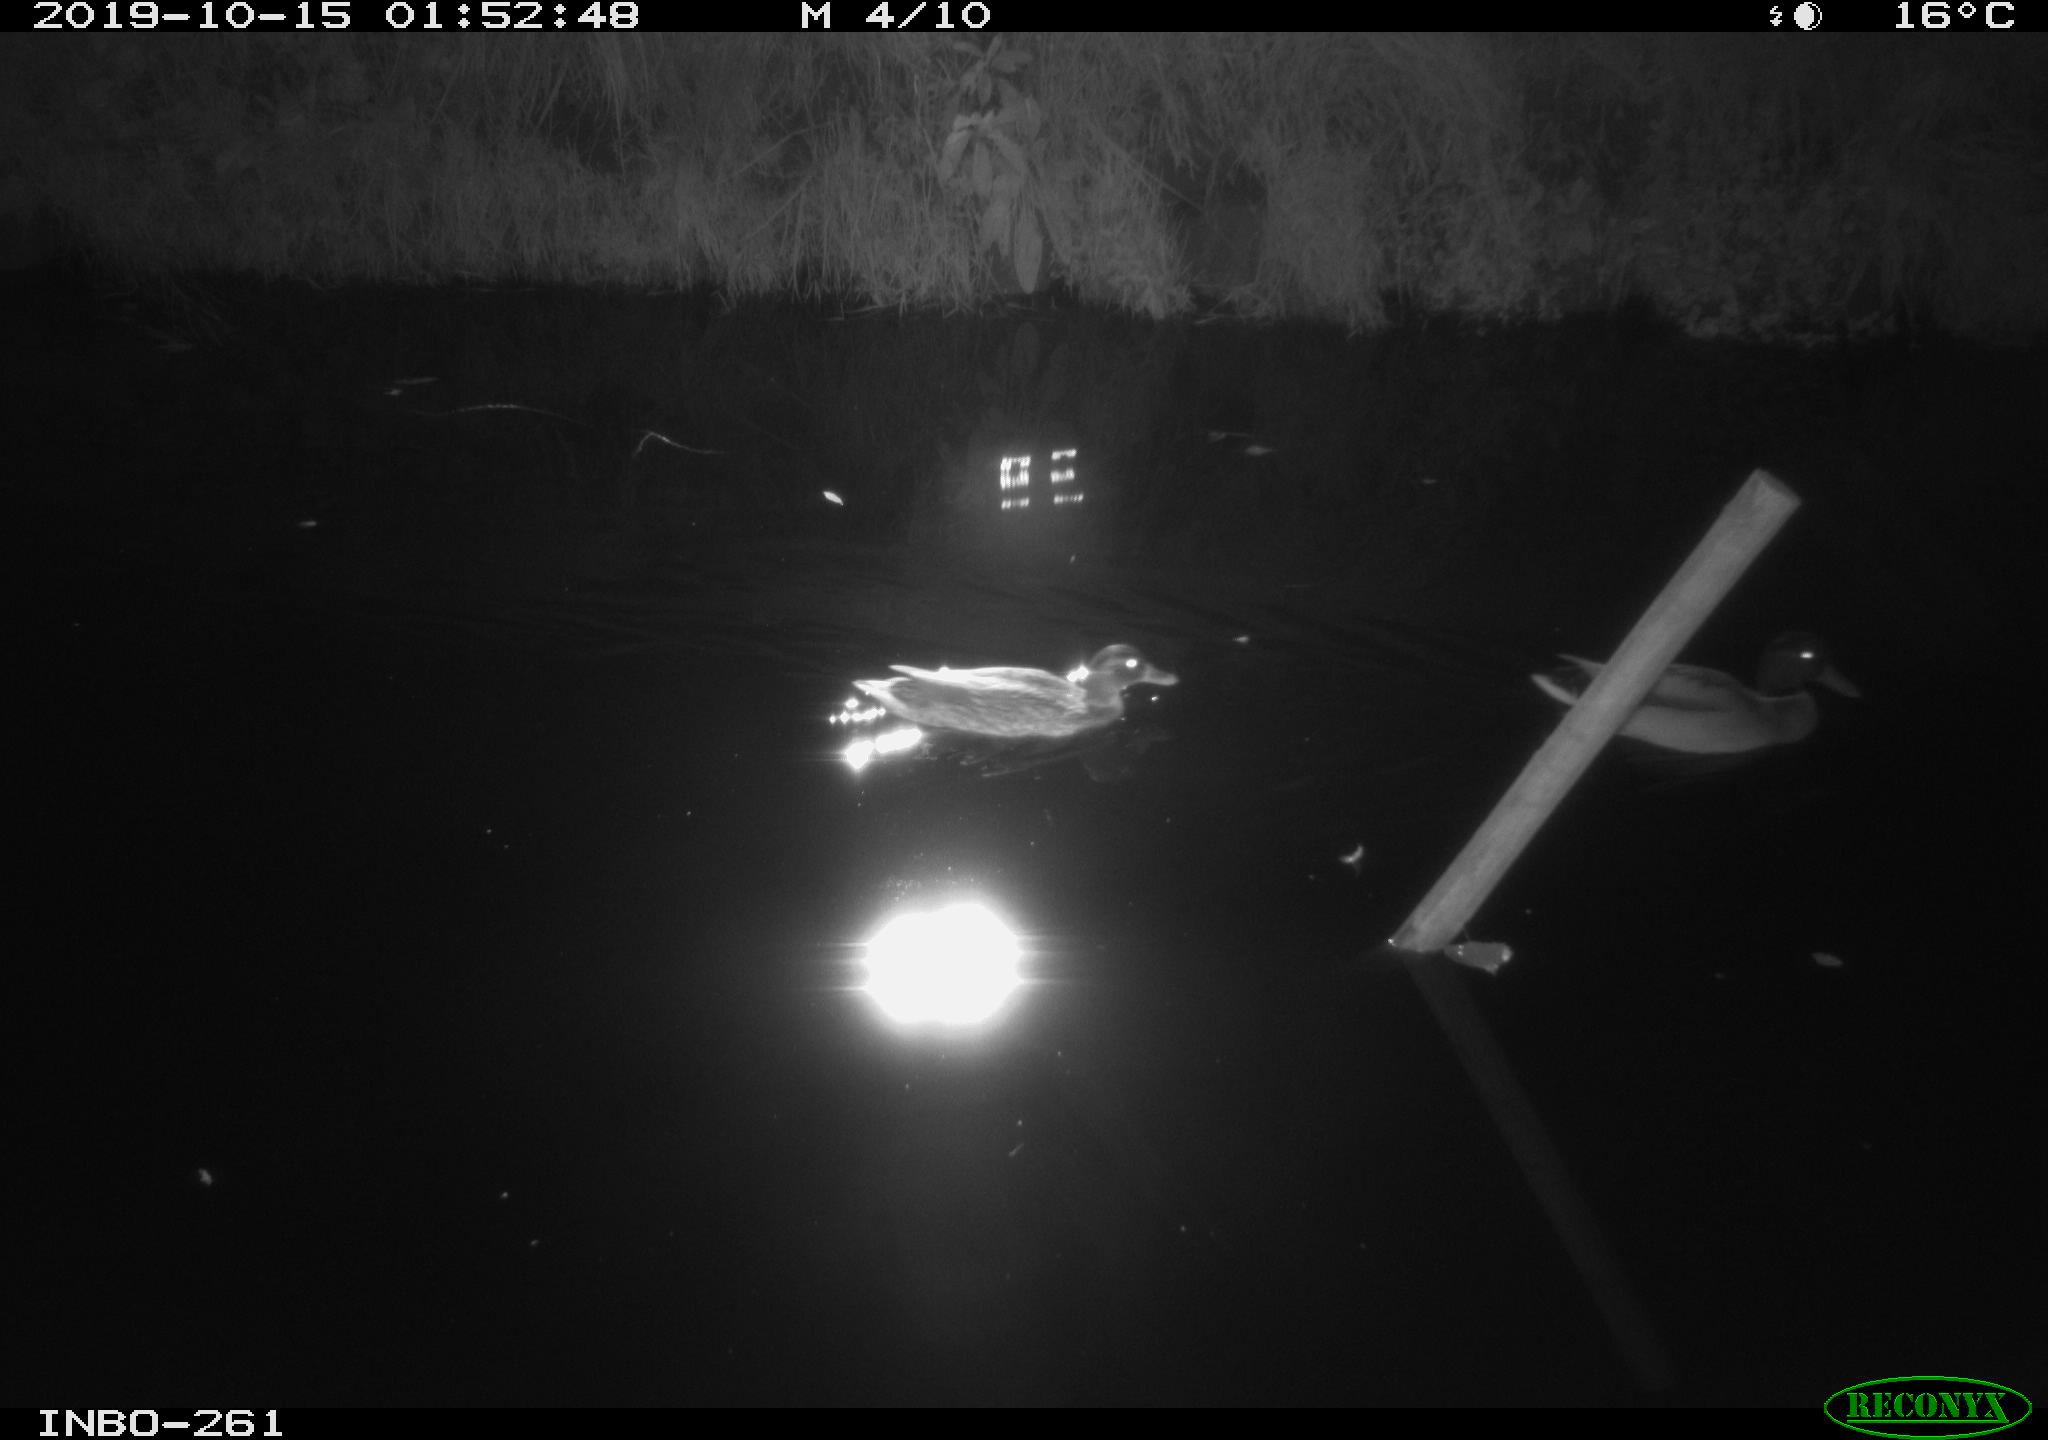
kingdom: Animalia
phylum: Chordata
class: Aves
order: Anseriformes
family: Anatidae
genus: Anas
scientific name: Anas platyrhynchos
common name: Mallard
